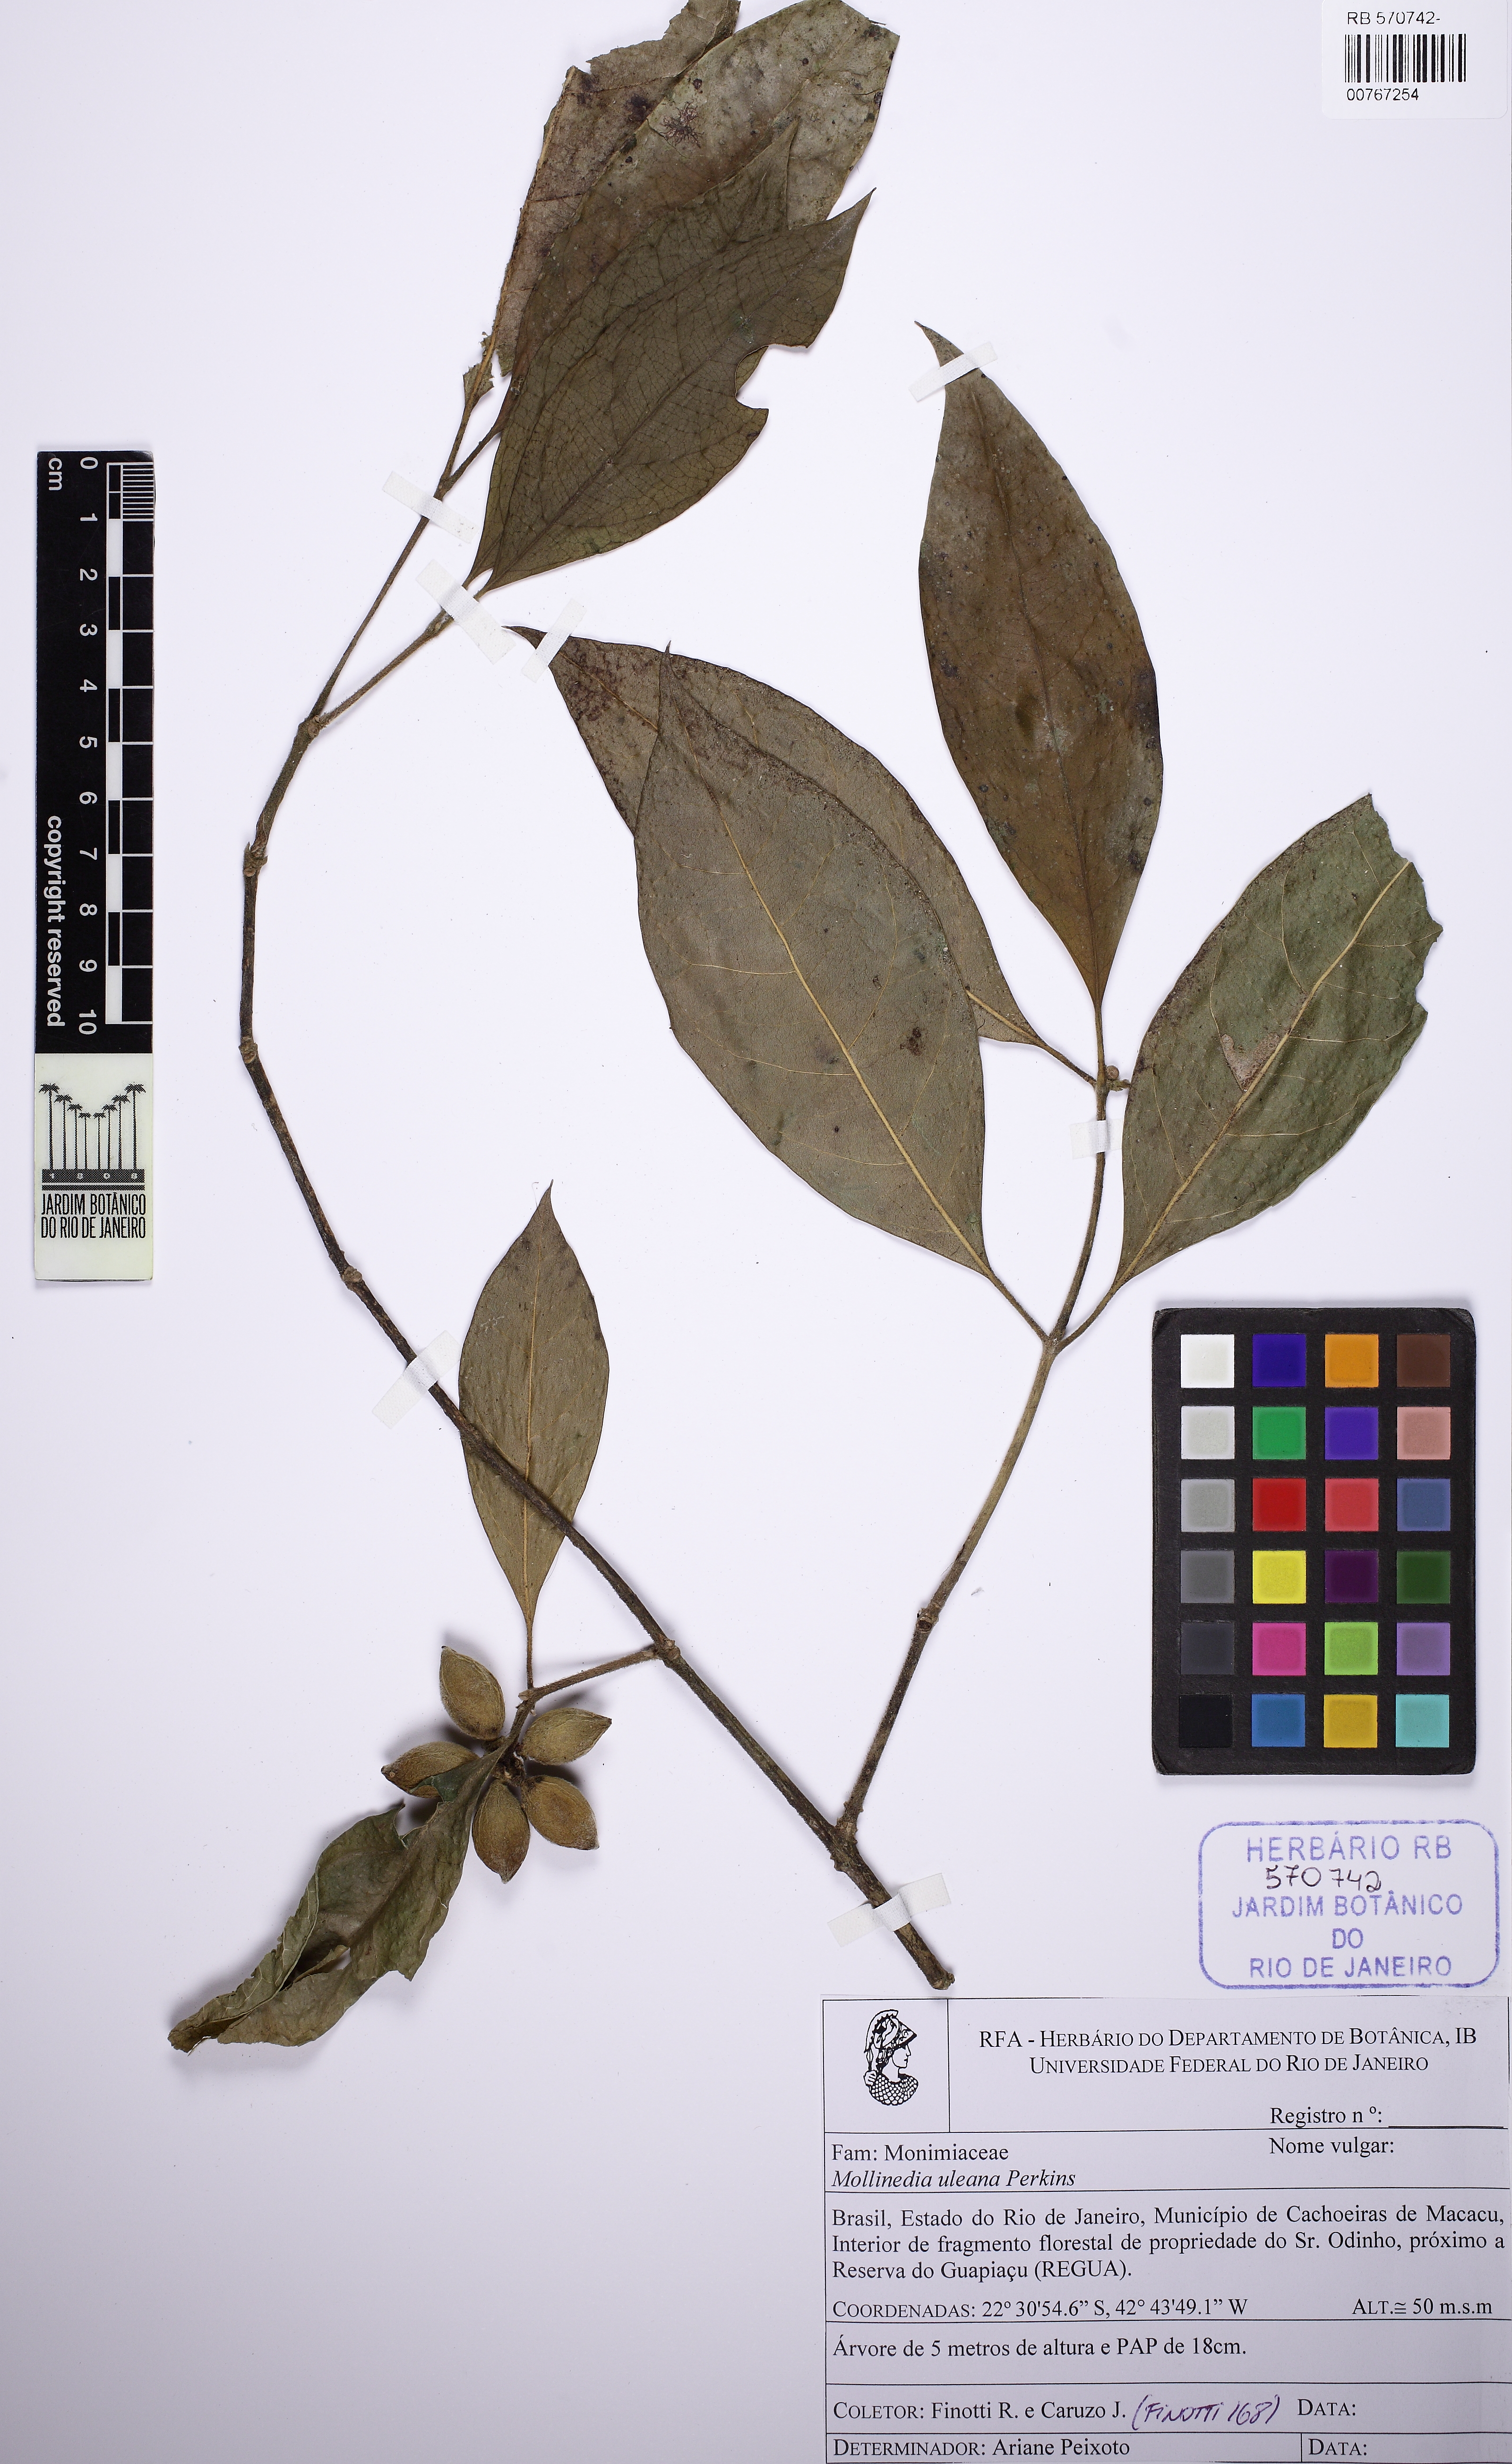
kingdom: Plantae
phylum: Tracheophyta
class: Magnoliopsida
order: Laurales
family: Monimiaceae
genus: Mollinedia
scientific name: Mollinedia uleana
